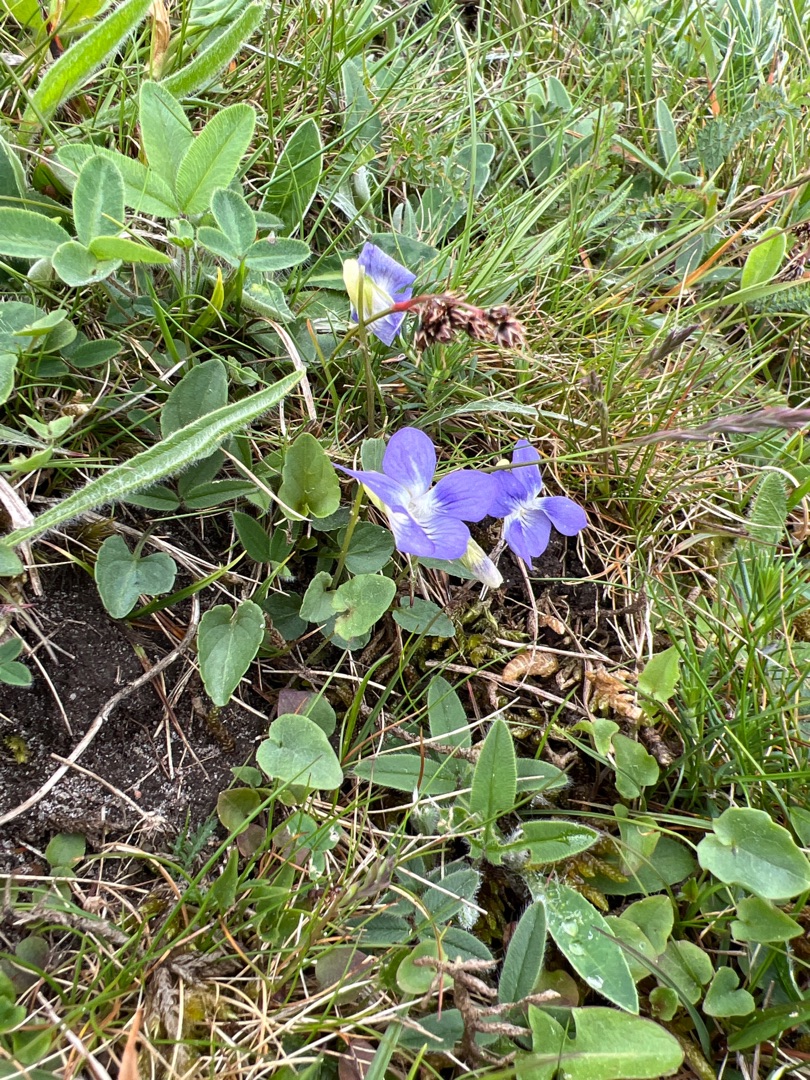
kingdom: Plantae
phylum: Tracheophyta
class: Magnoliopsida
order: Malpighiales
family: Violaceae
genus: Viola
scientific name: Viola canina
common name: Hunde-viol
